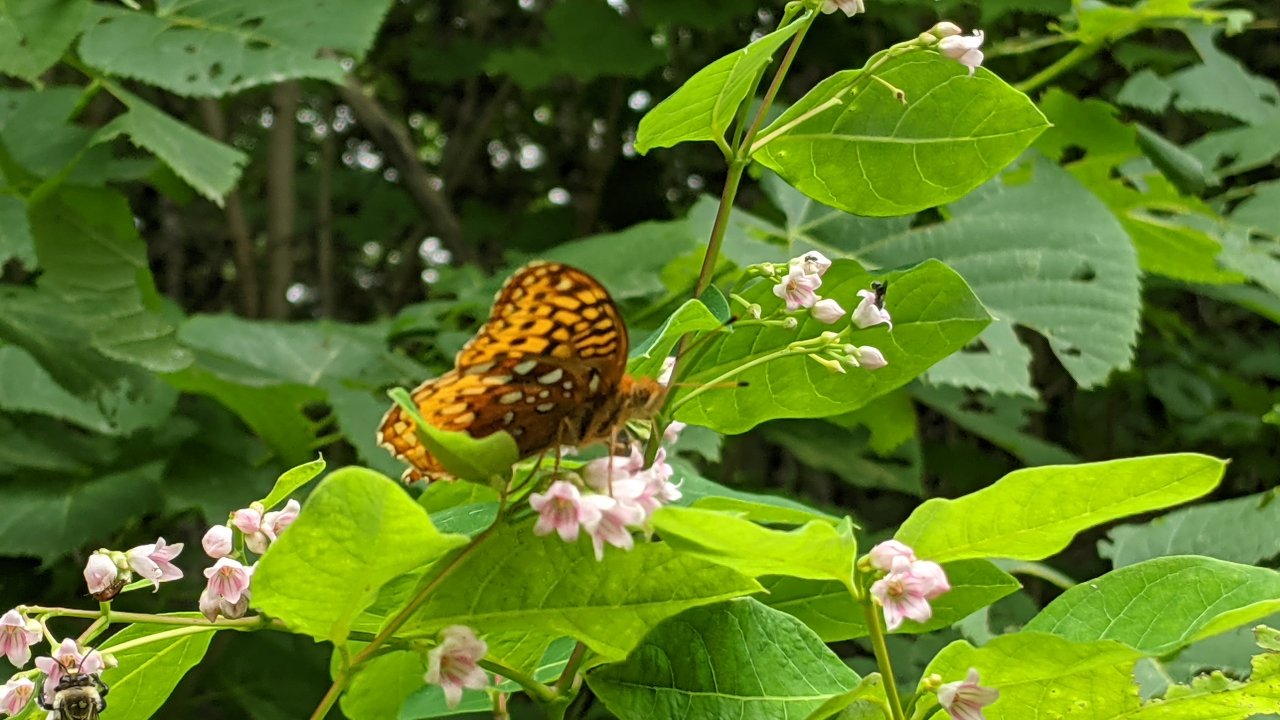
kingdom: Animalia
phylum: Arthropoda
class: Insecta
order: Lepidoptera
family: Nymphalidae
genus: Speyeria
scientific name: Speyeria
